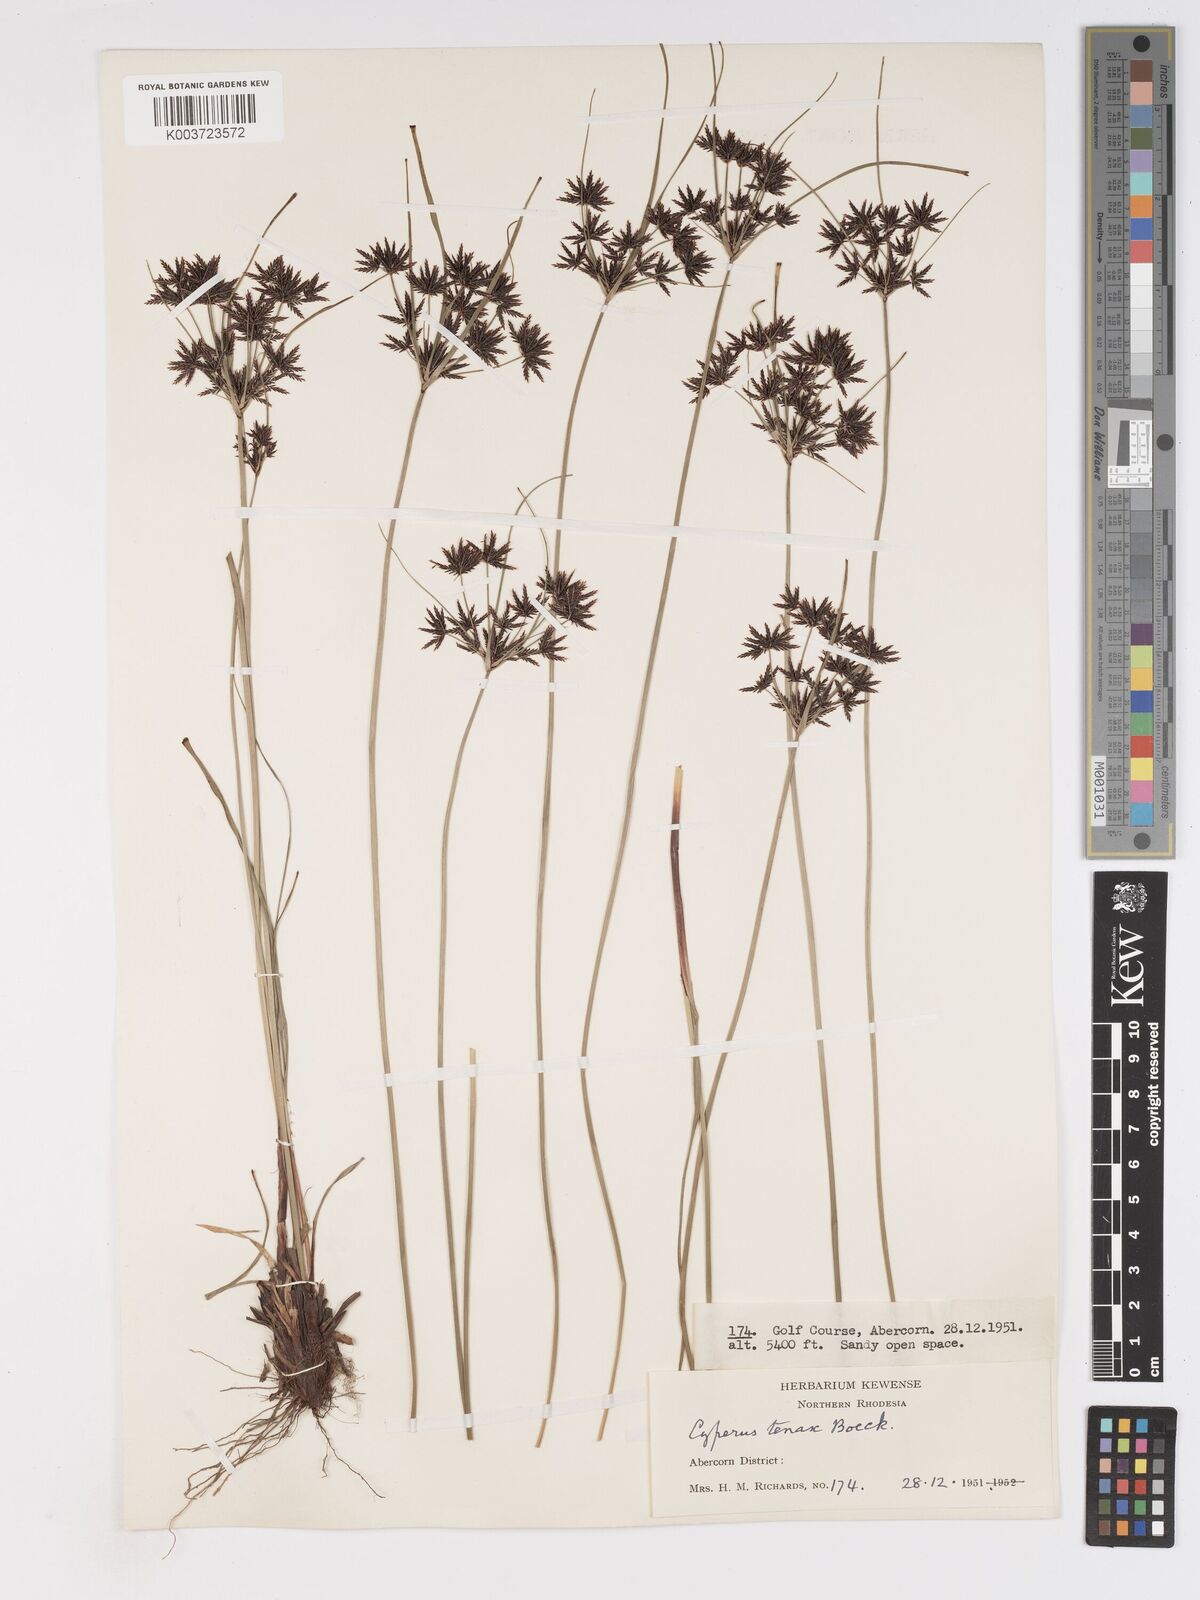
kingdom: Plantae
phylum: Tracheophyta
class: Liliopsida
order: Poales
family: Cyperaceae
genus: Cyperus
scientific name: Cyperus tenax
